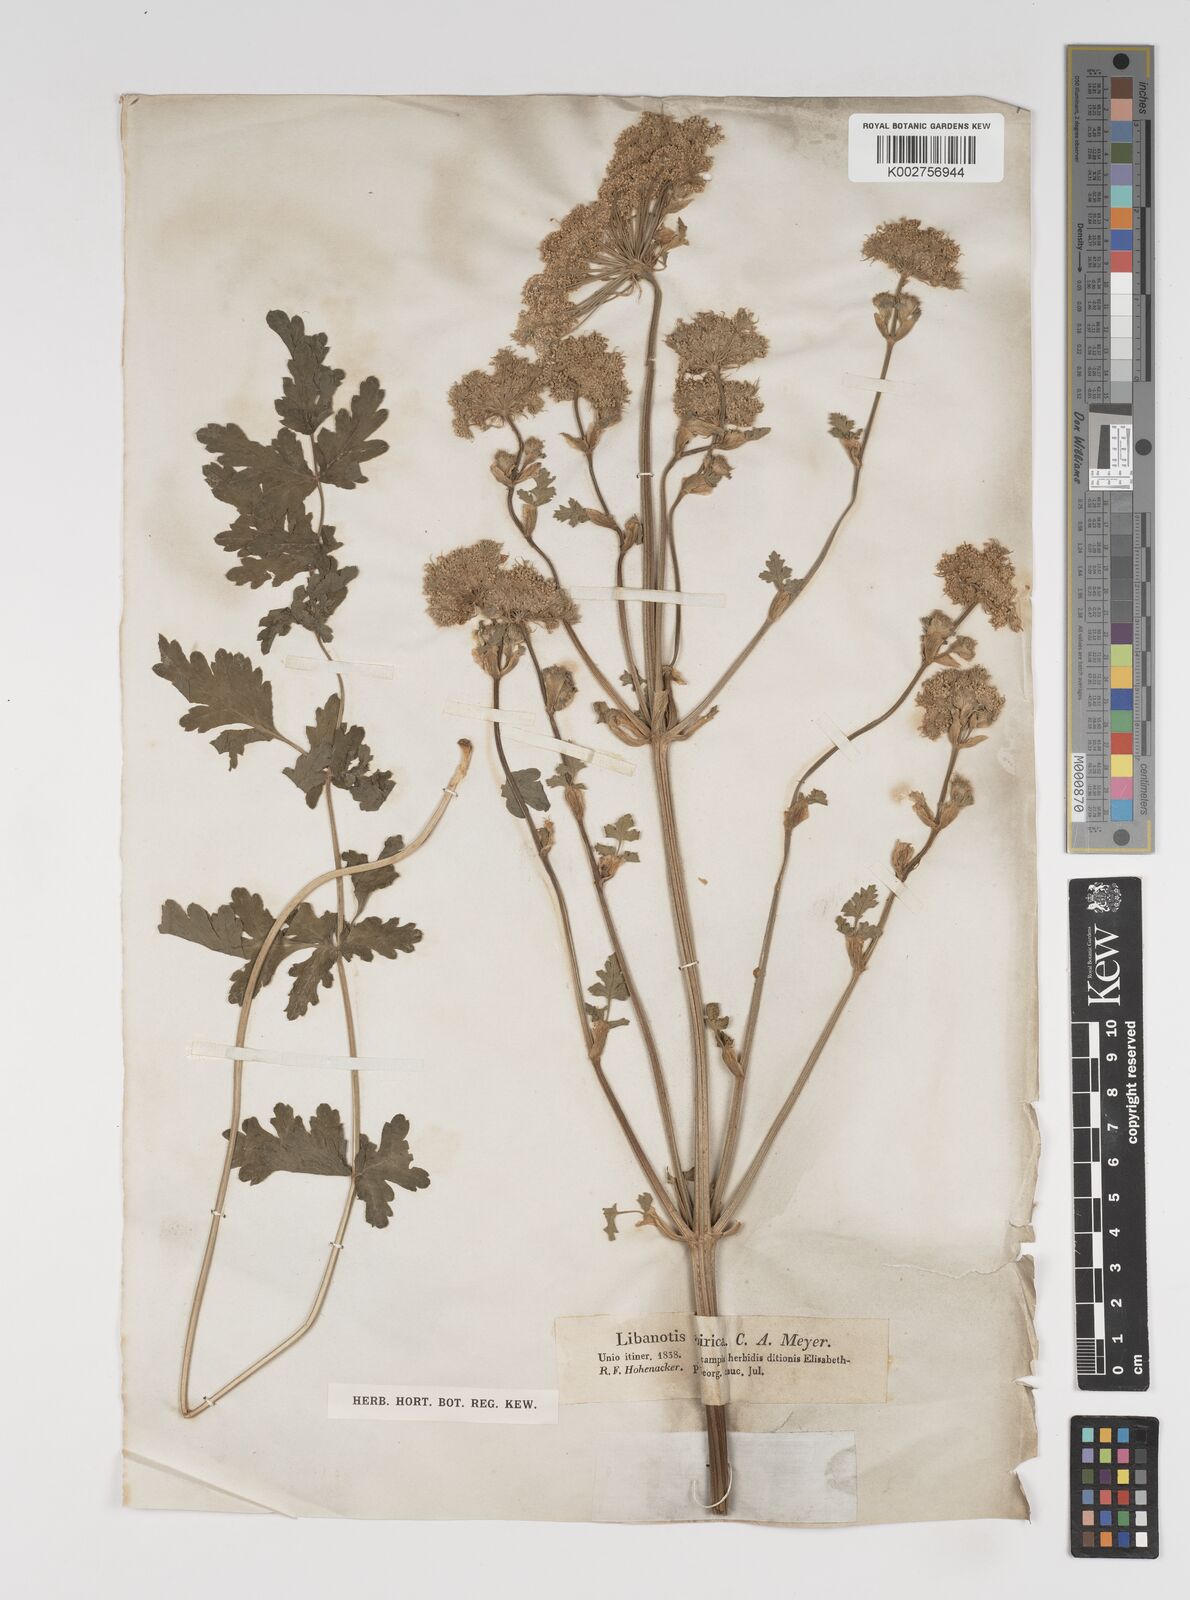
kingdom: Plantae
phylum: Tracheophyta
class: Magnoliopsida
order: Apiales
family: Apiaceae
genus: Seseli
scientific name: Seseli libanotis
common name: Mooncarrot
